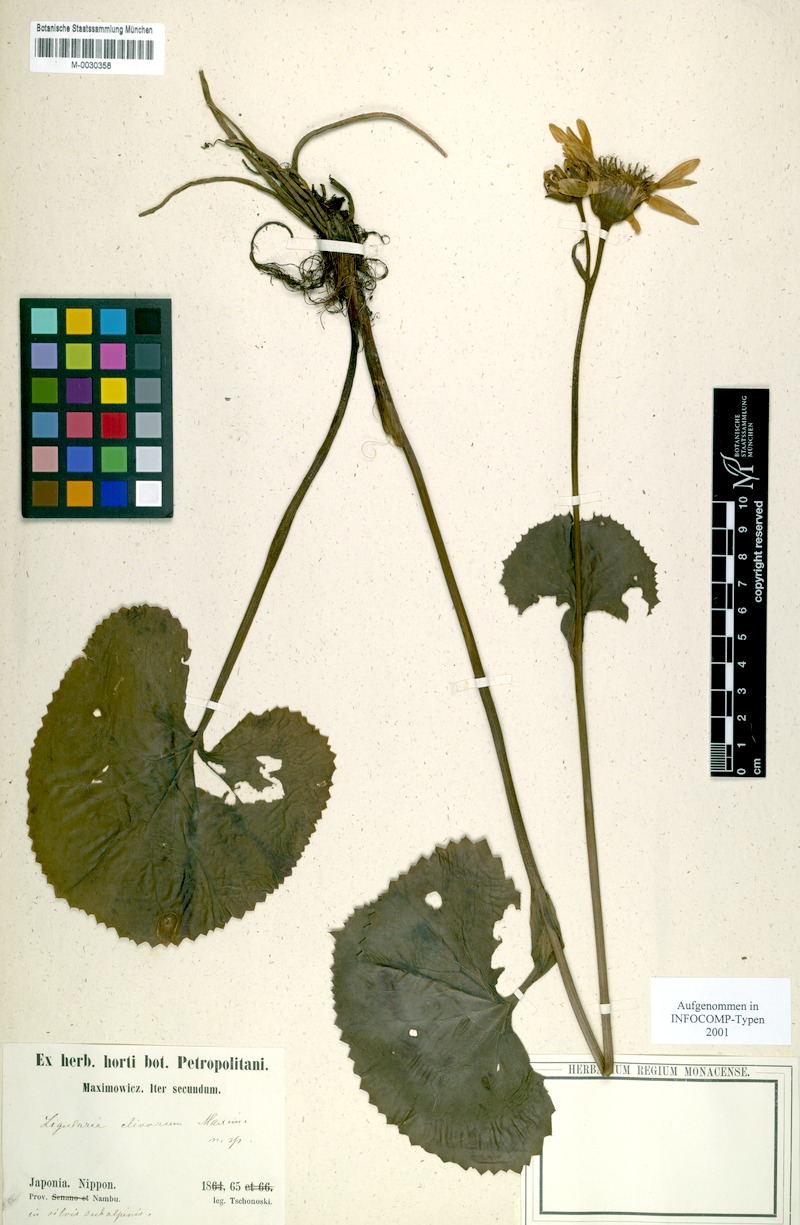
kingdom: Plantae
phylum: Tracheophyta
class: Magnoliopsida
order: Asterales
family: Asteraceae
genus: Ligularia
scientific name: Ligularia dentata
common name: Leopardplant
